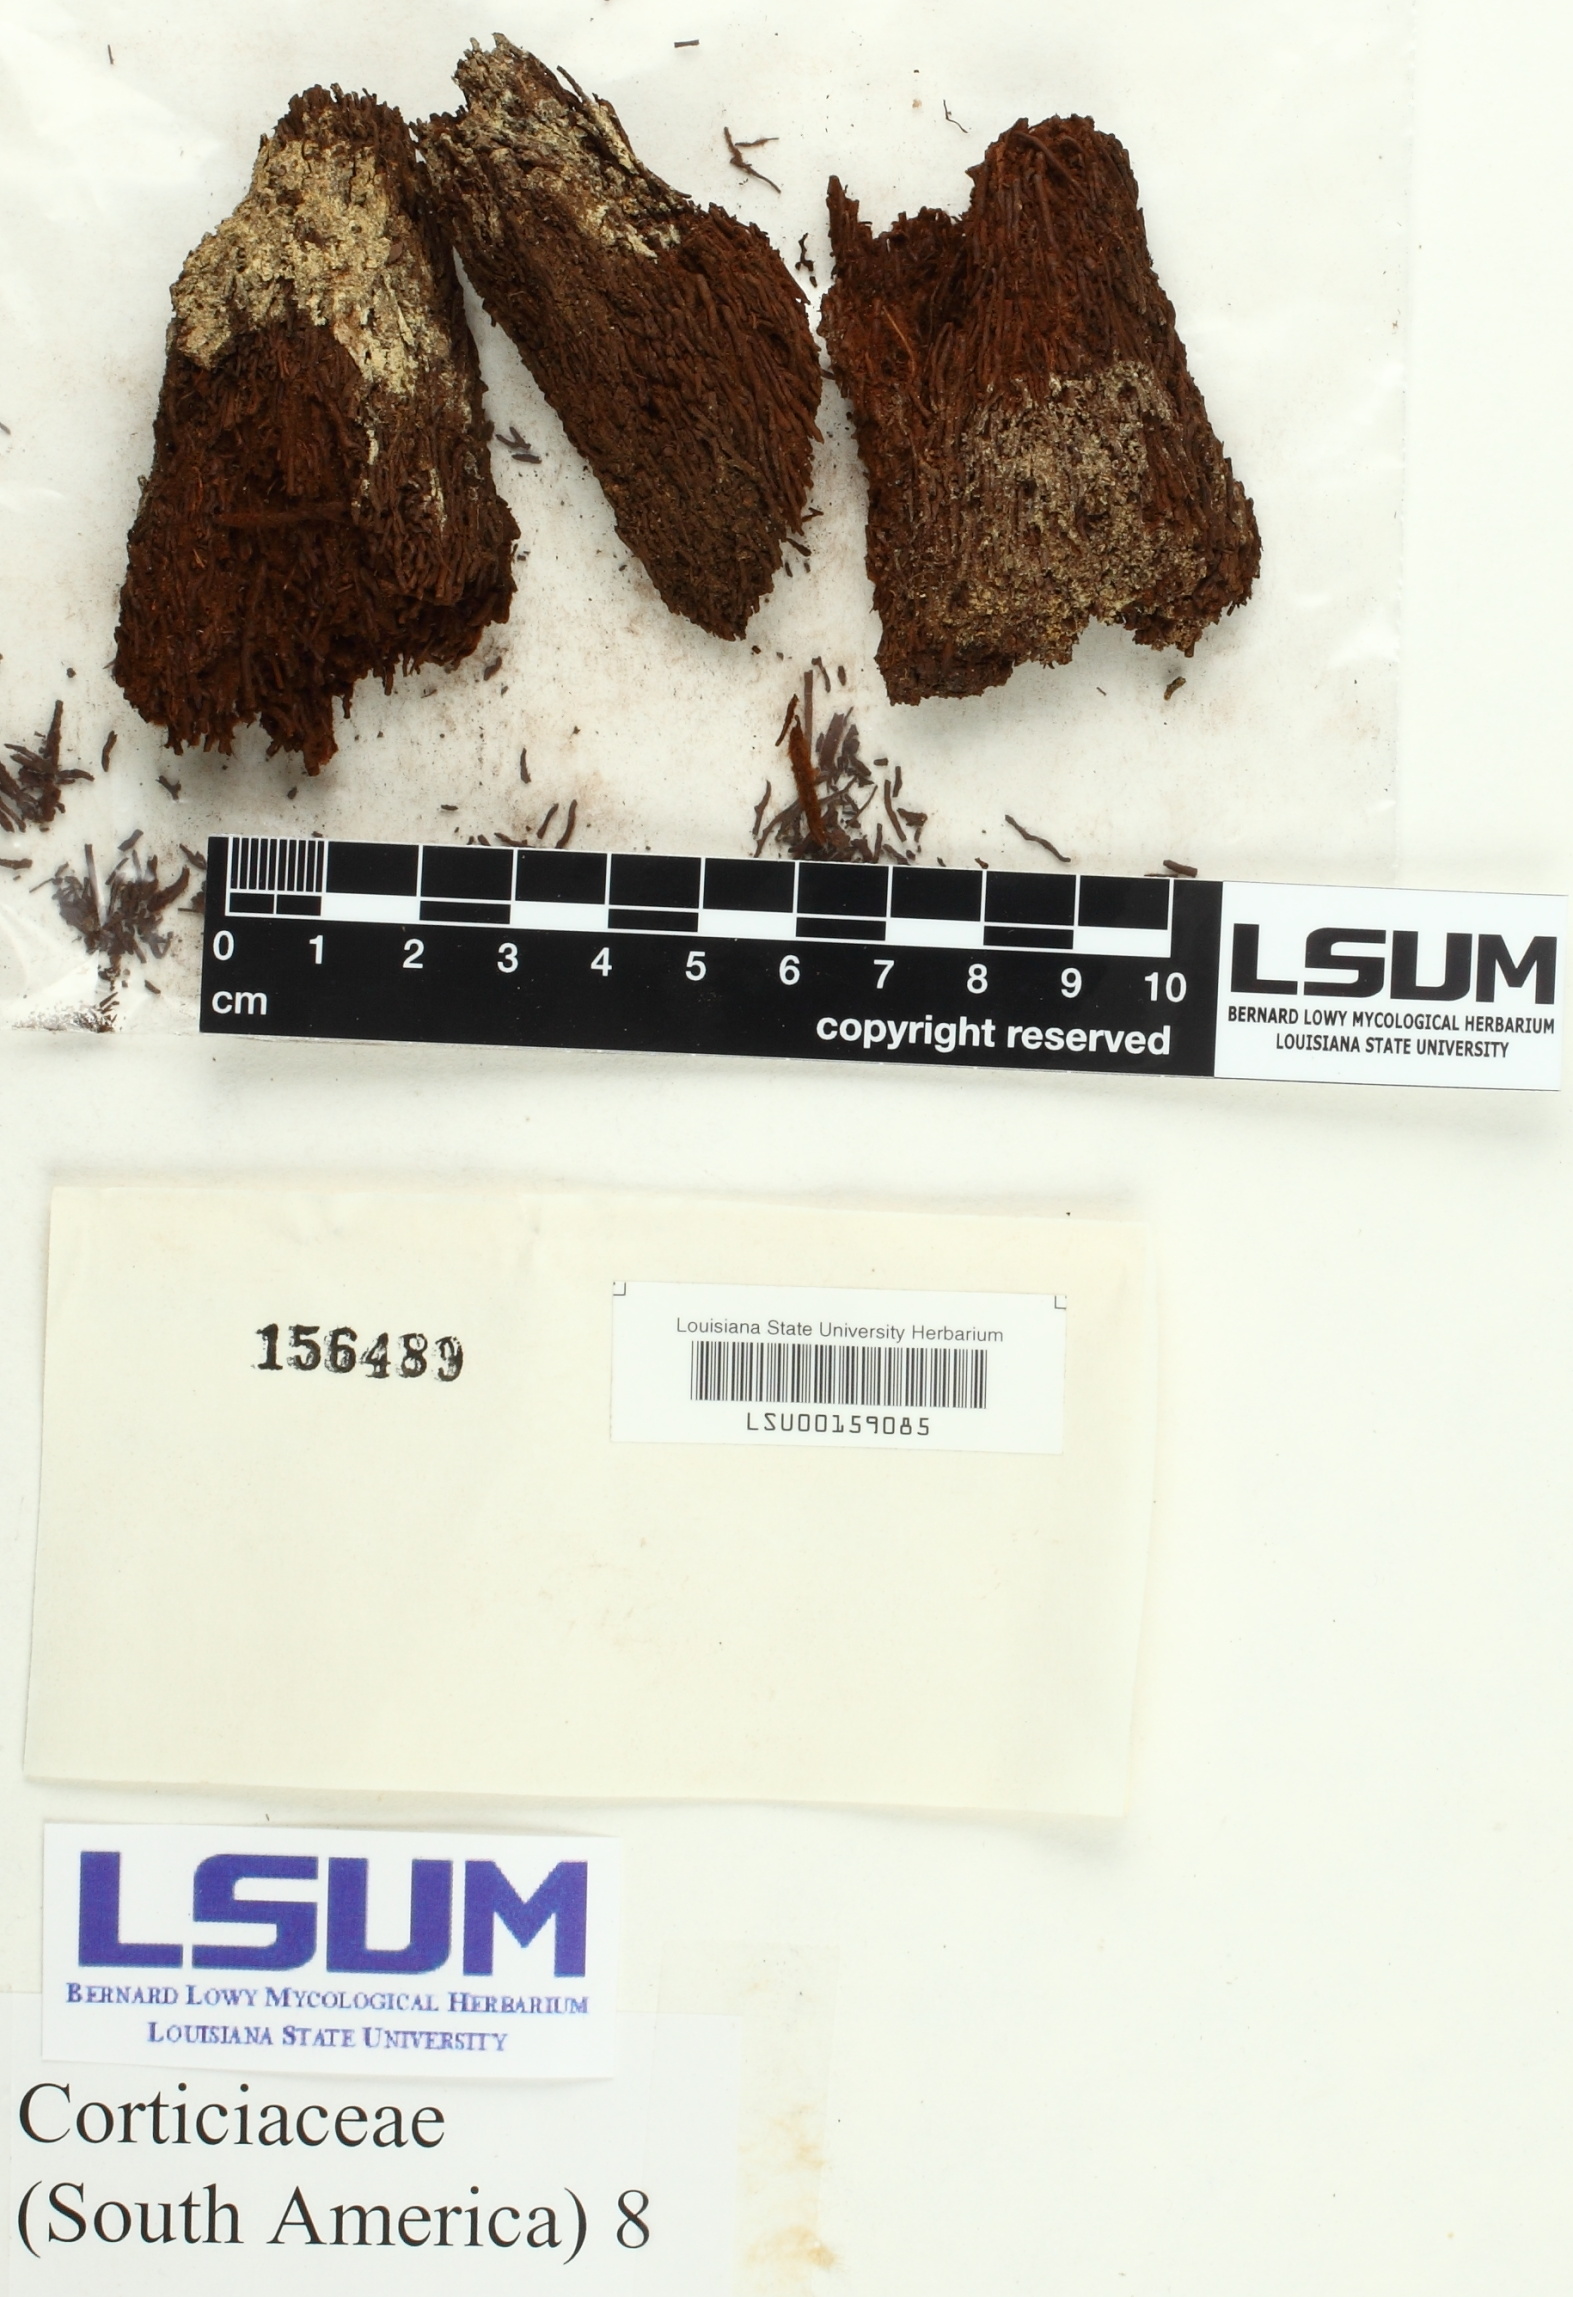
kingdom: Fungi
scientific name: Fungi
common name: Fungi
